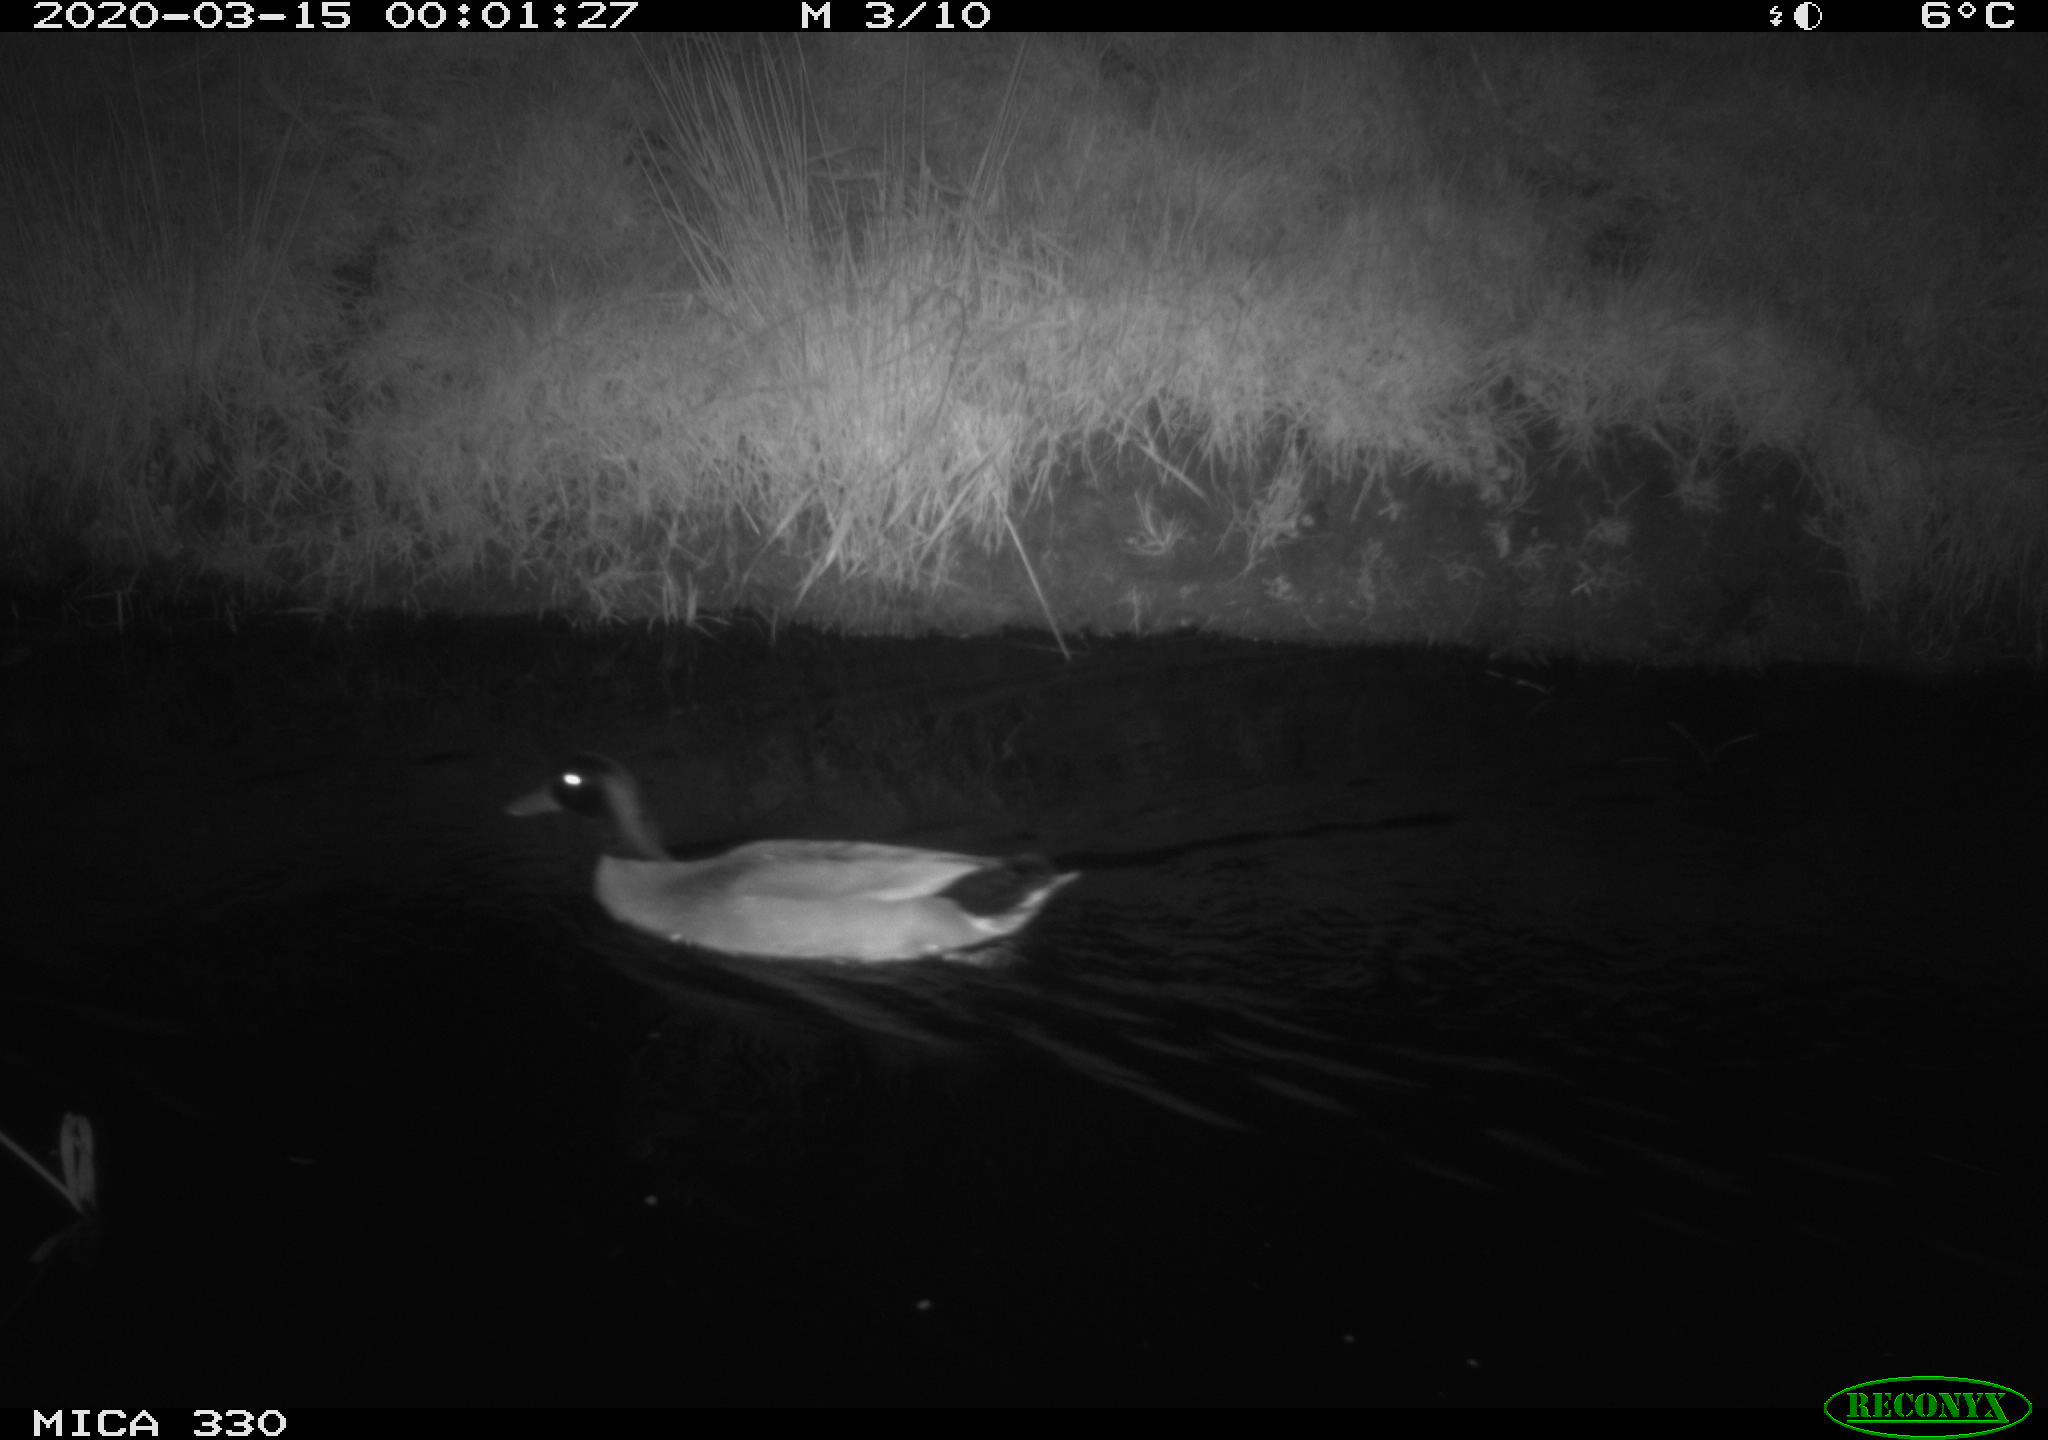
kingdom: Animalia
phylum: Chordata
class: Aves
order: Anseriformes
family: Anatidae
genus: Anas
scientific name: Anas platyrhynchos
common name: Mallard
